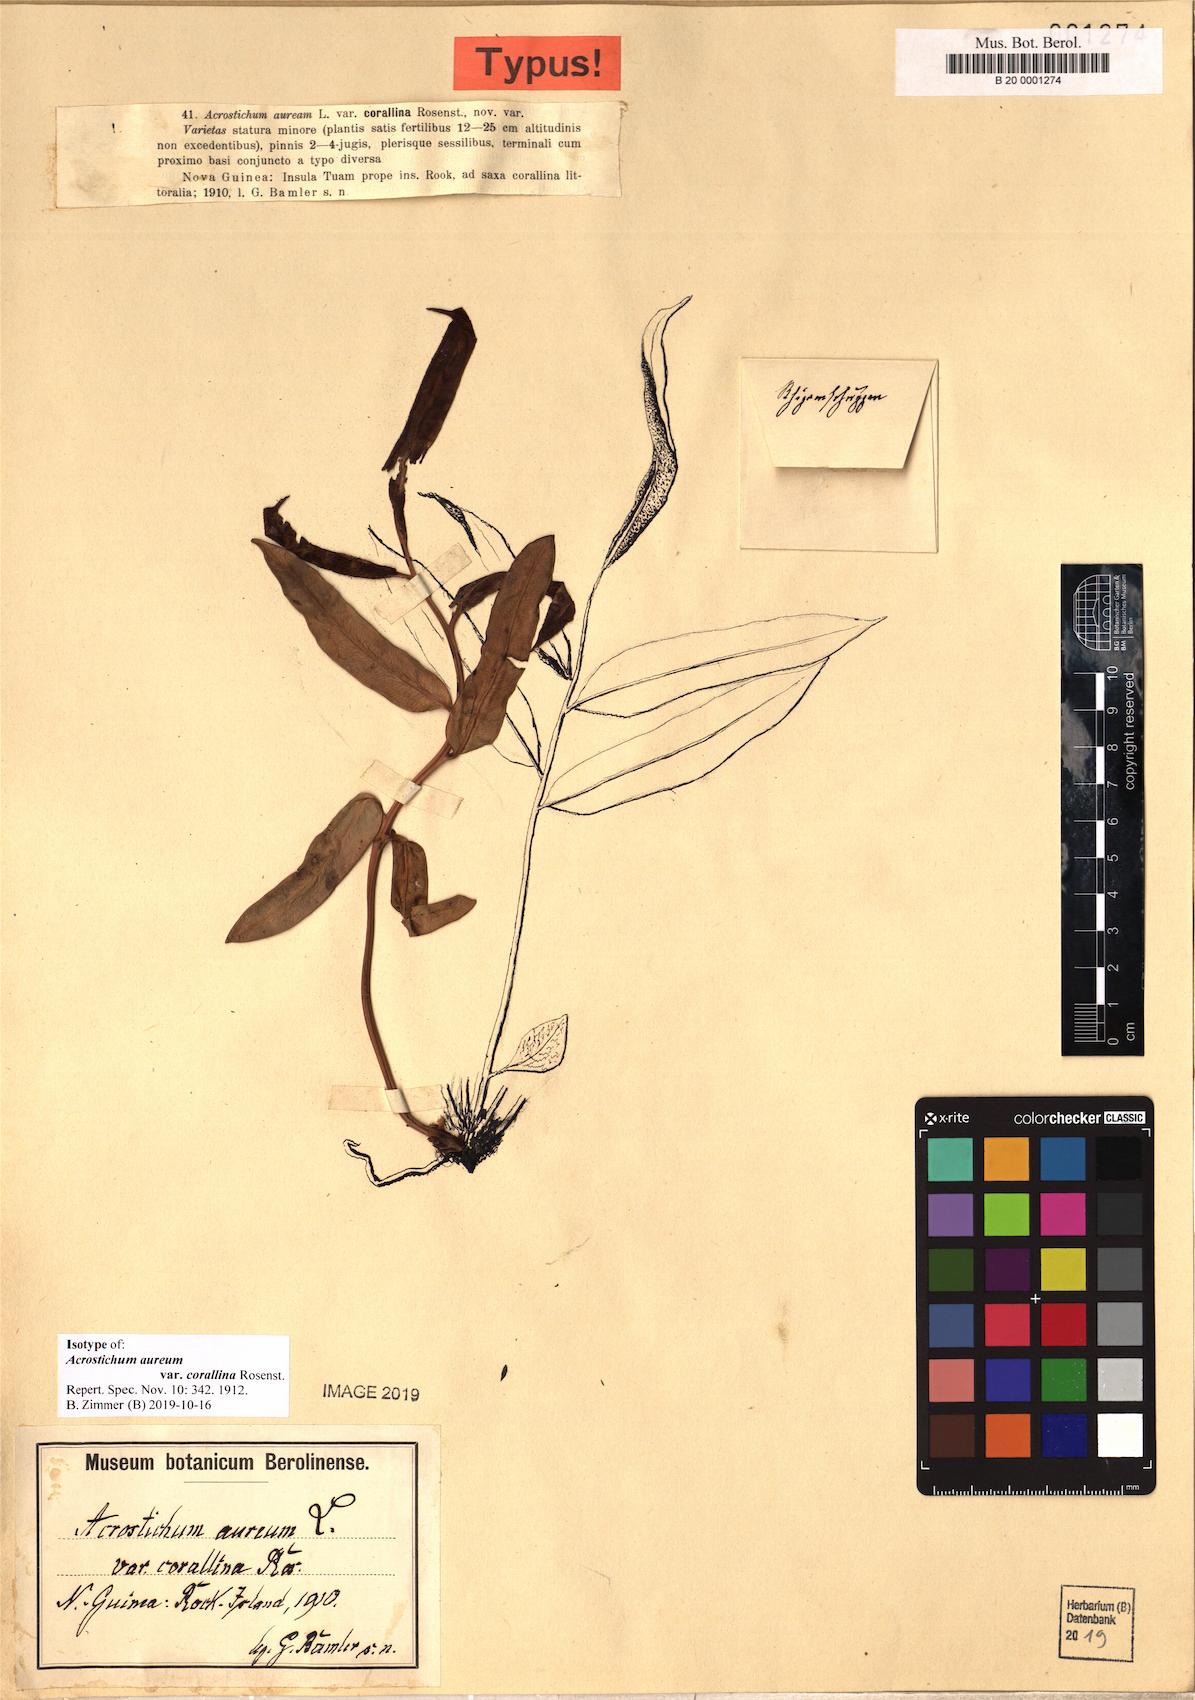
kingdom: Plantae
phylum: Tracheophyta
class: Polypodiopsida
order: Polypodiales
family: Pteridaceae
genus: Acrostichum
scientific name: Acrostichum aureum
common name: Leather fern
